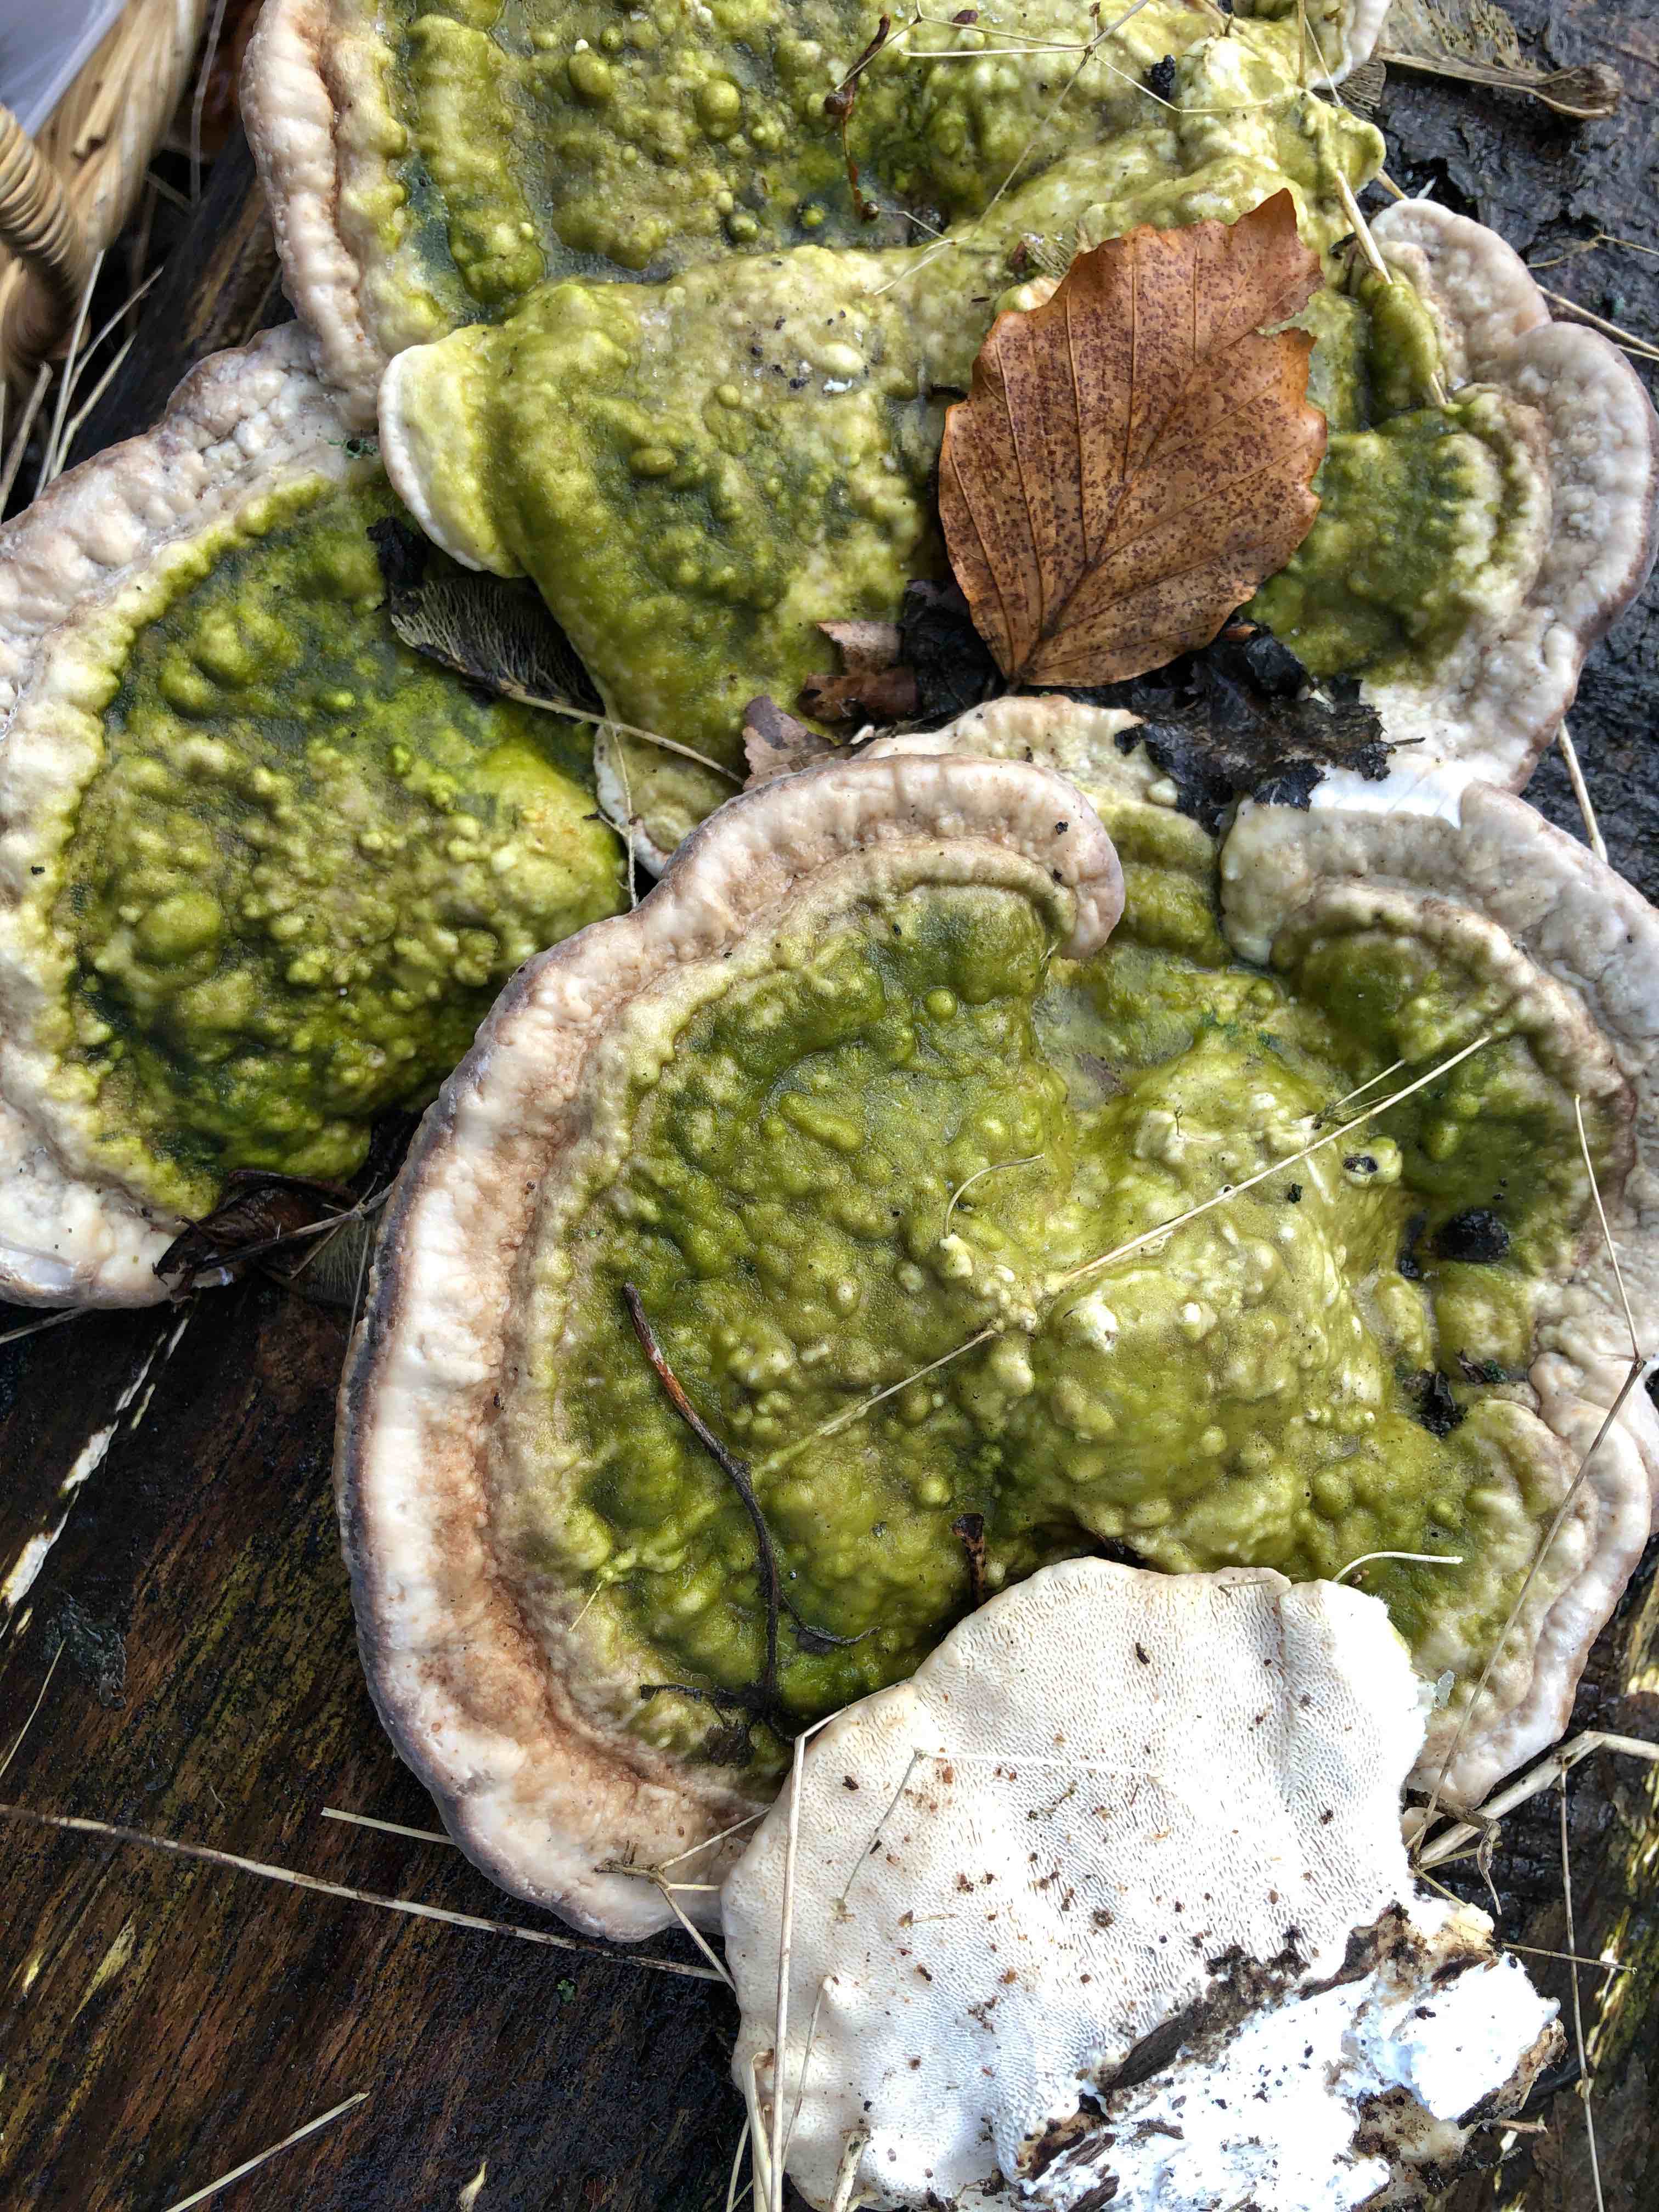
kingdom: Fungi
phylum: Basidiomycota
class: Agaricomycetes
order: Polyporales
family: Polyporaceae
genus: Trametes
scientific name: Trametes gibbosa
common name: puklet læderporesvamp
